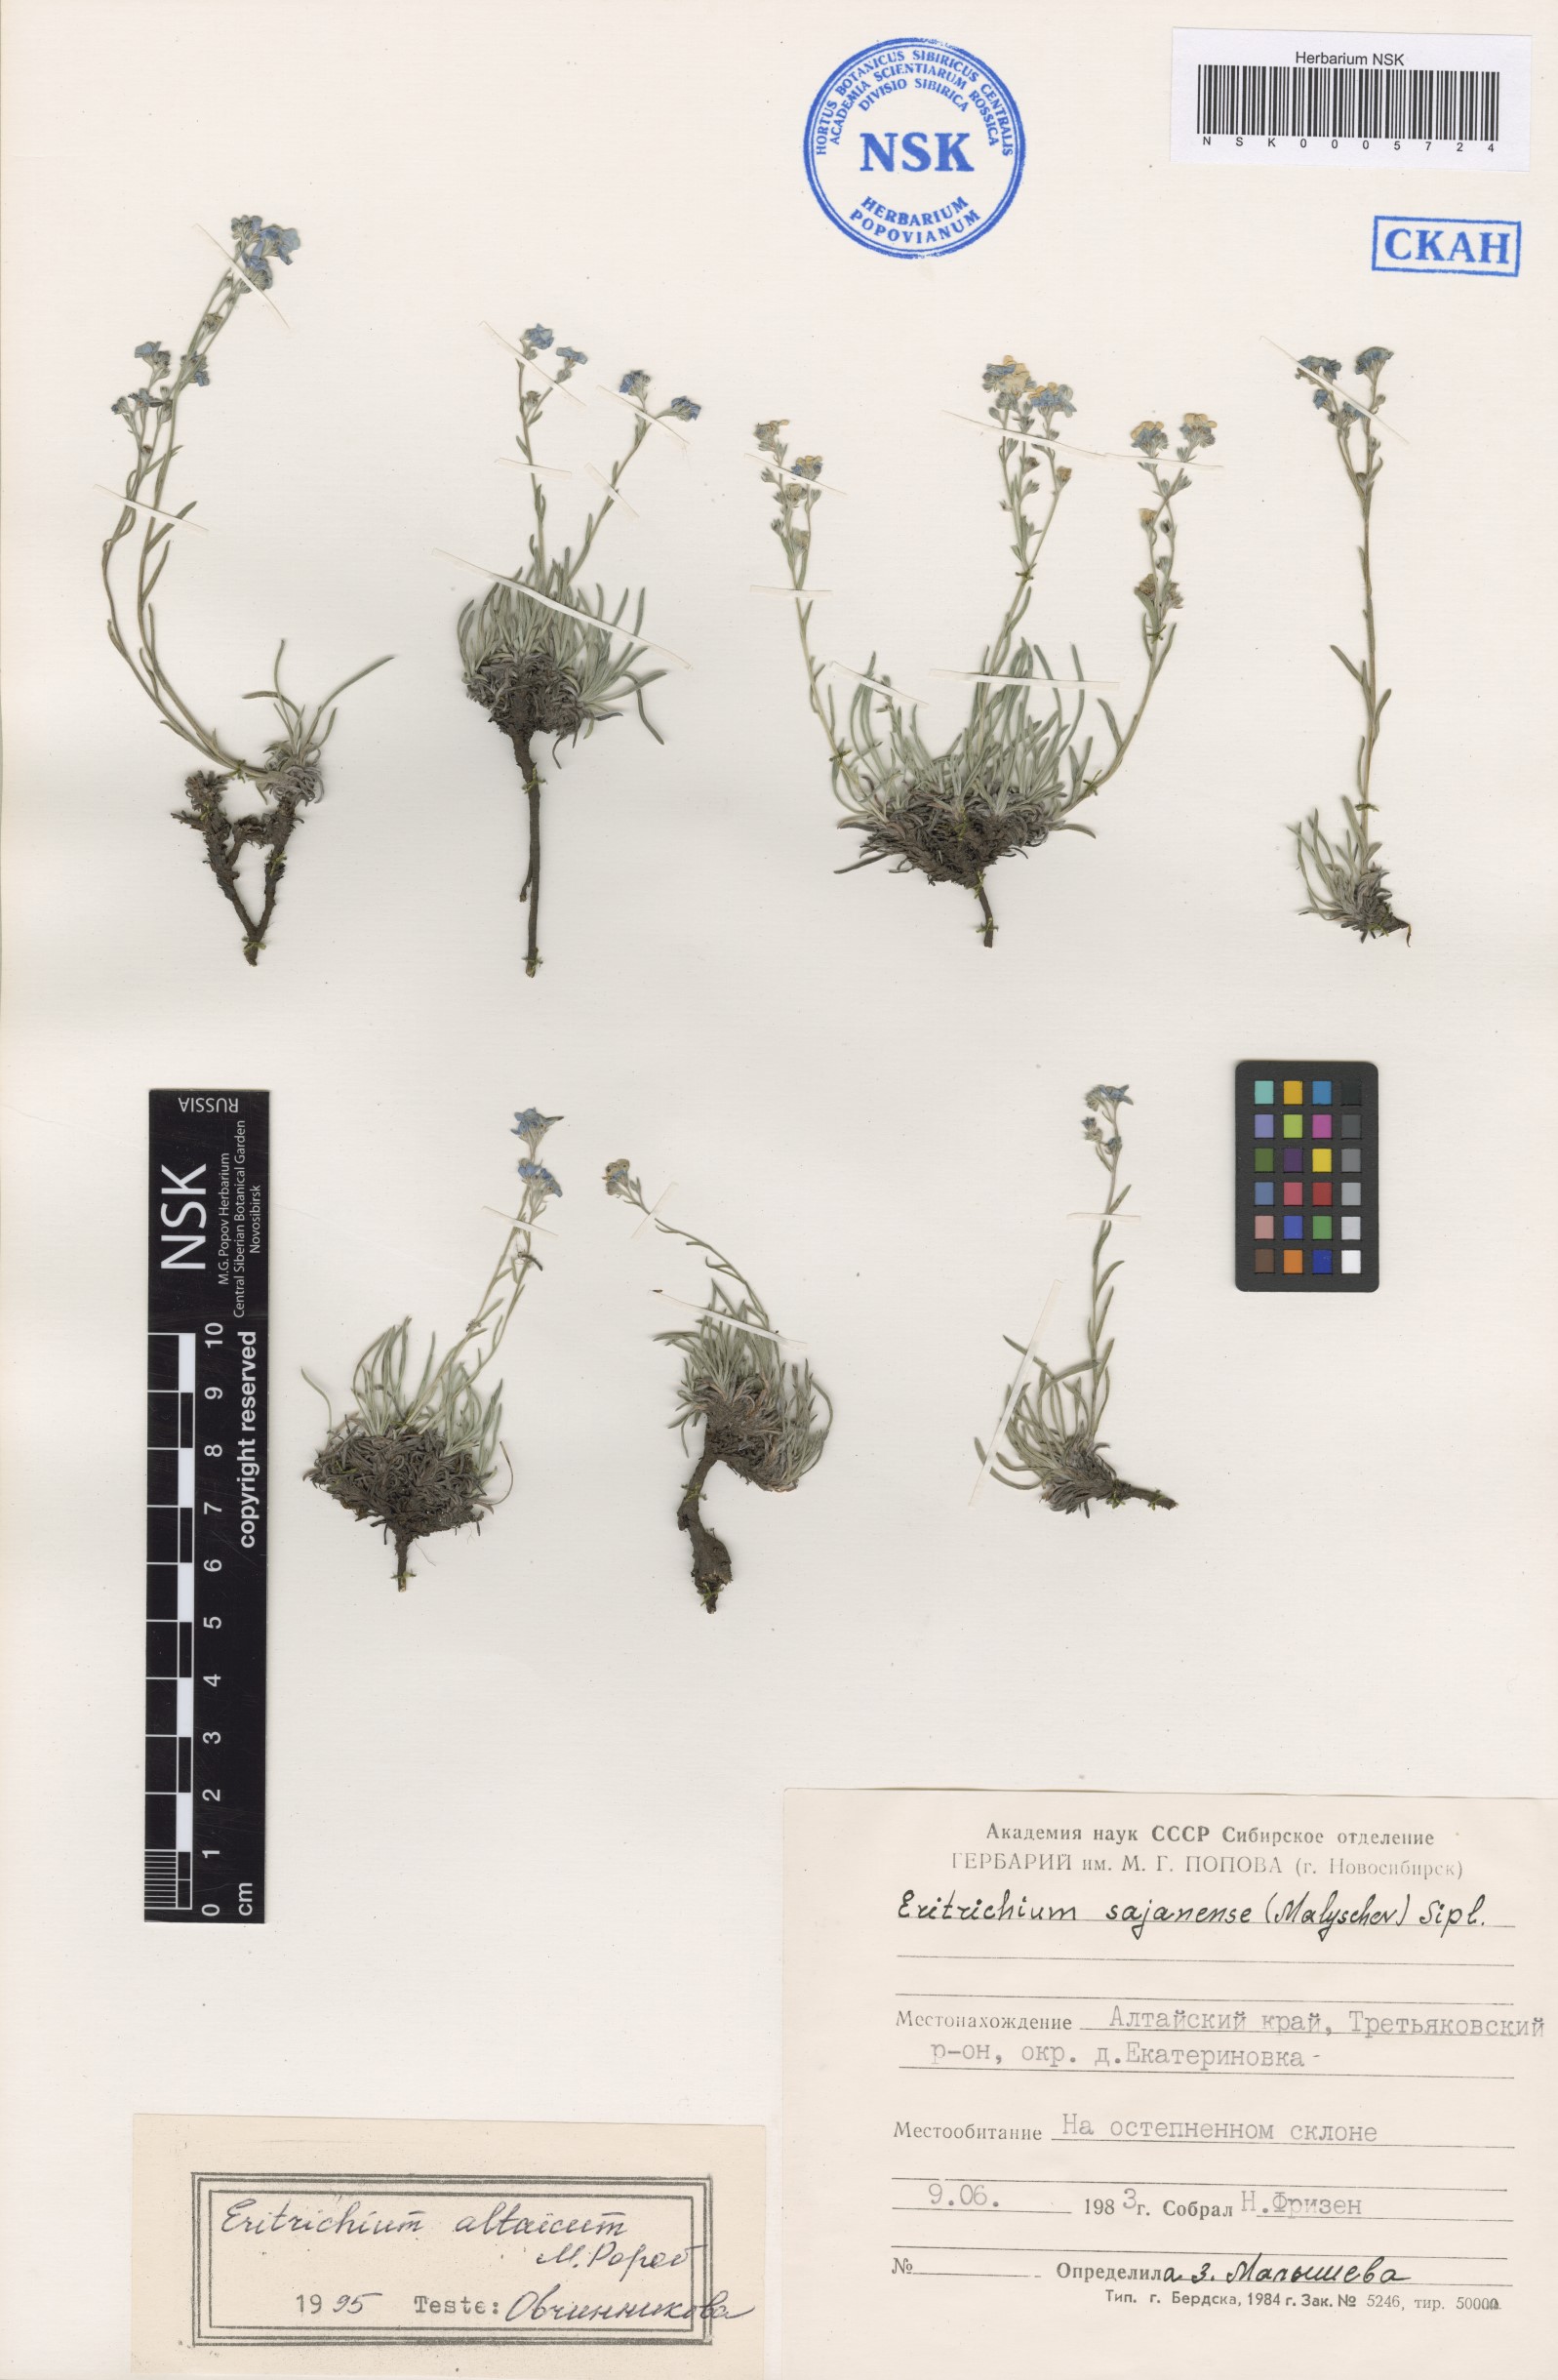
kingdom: Plantae
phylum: Tracheophyta
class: Magnoliopsida
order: Boraginales
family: Boraginaceae
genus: Eritrichium
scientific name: Eritrichium pauciflorum
